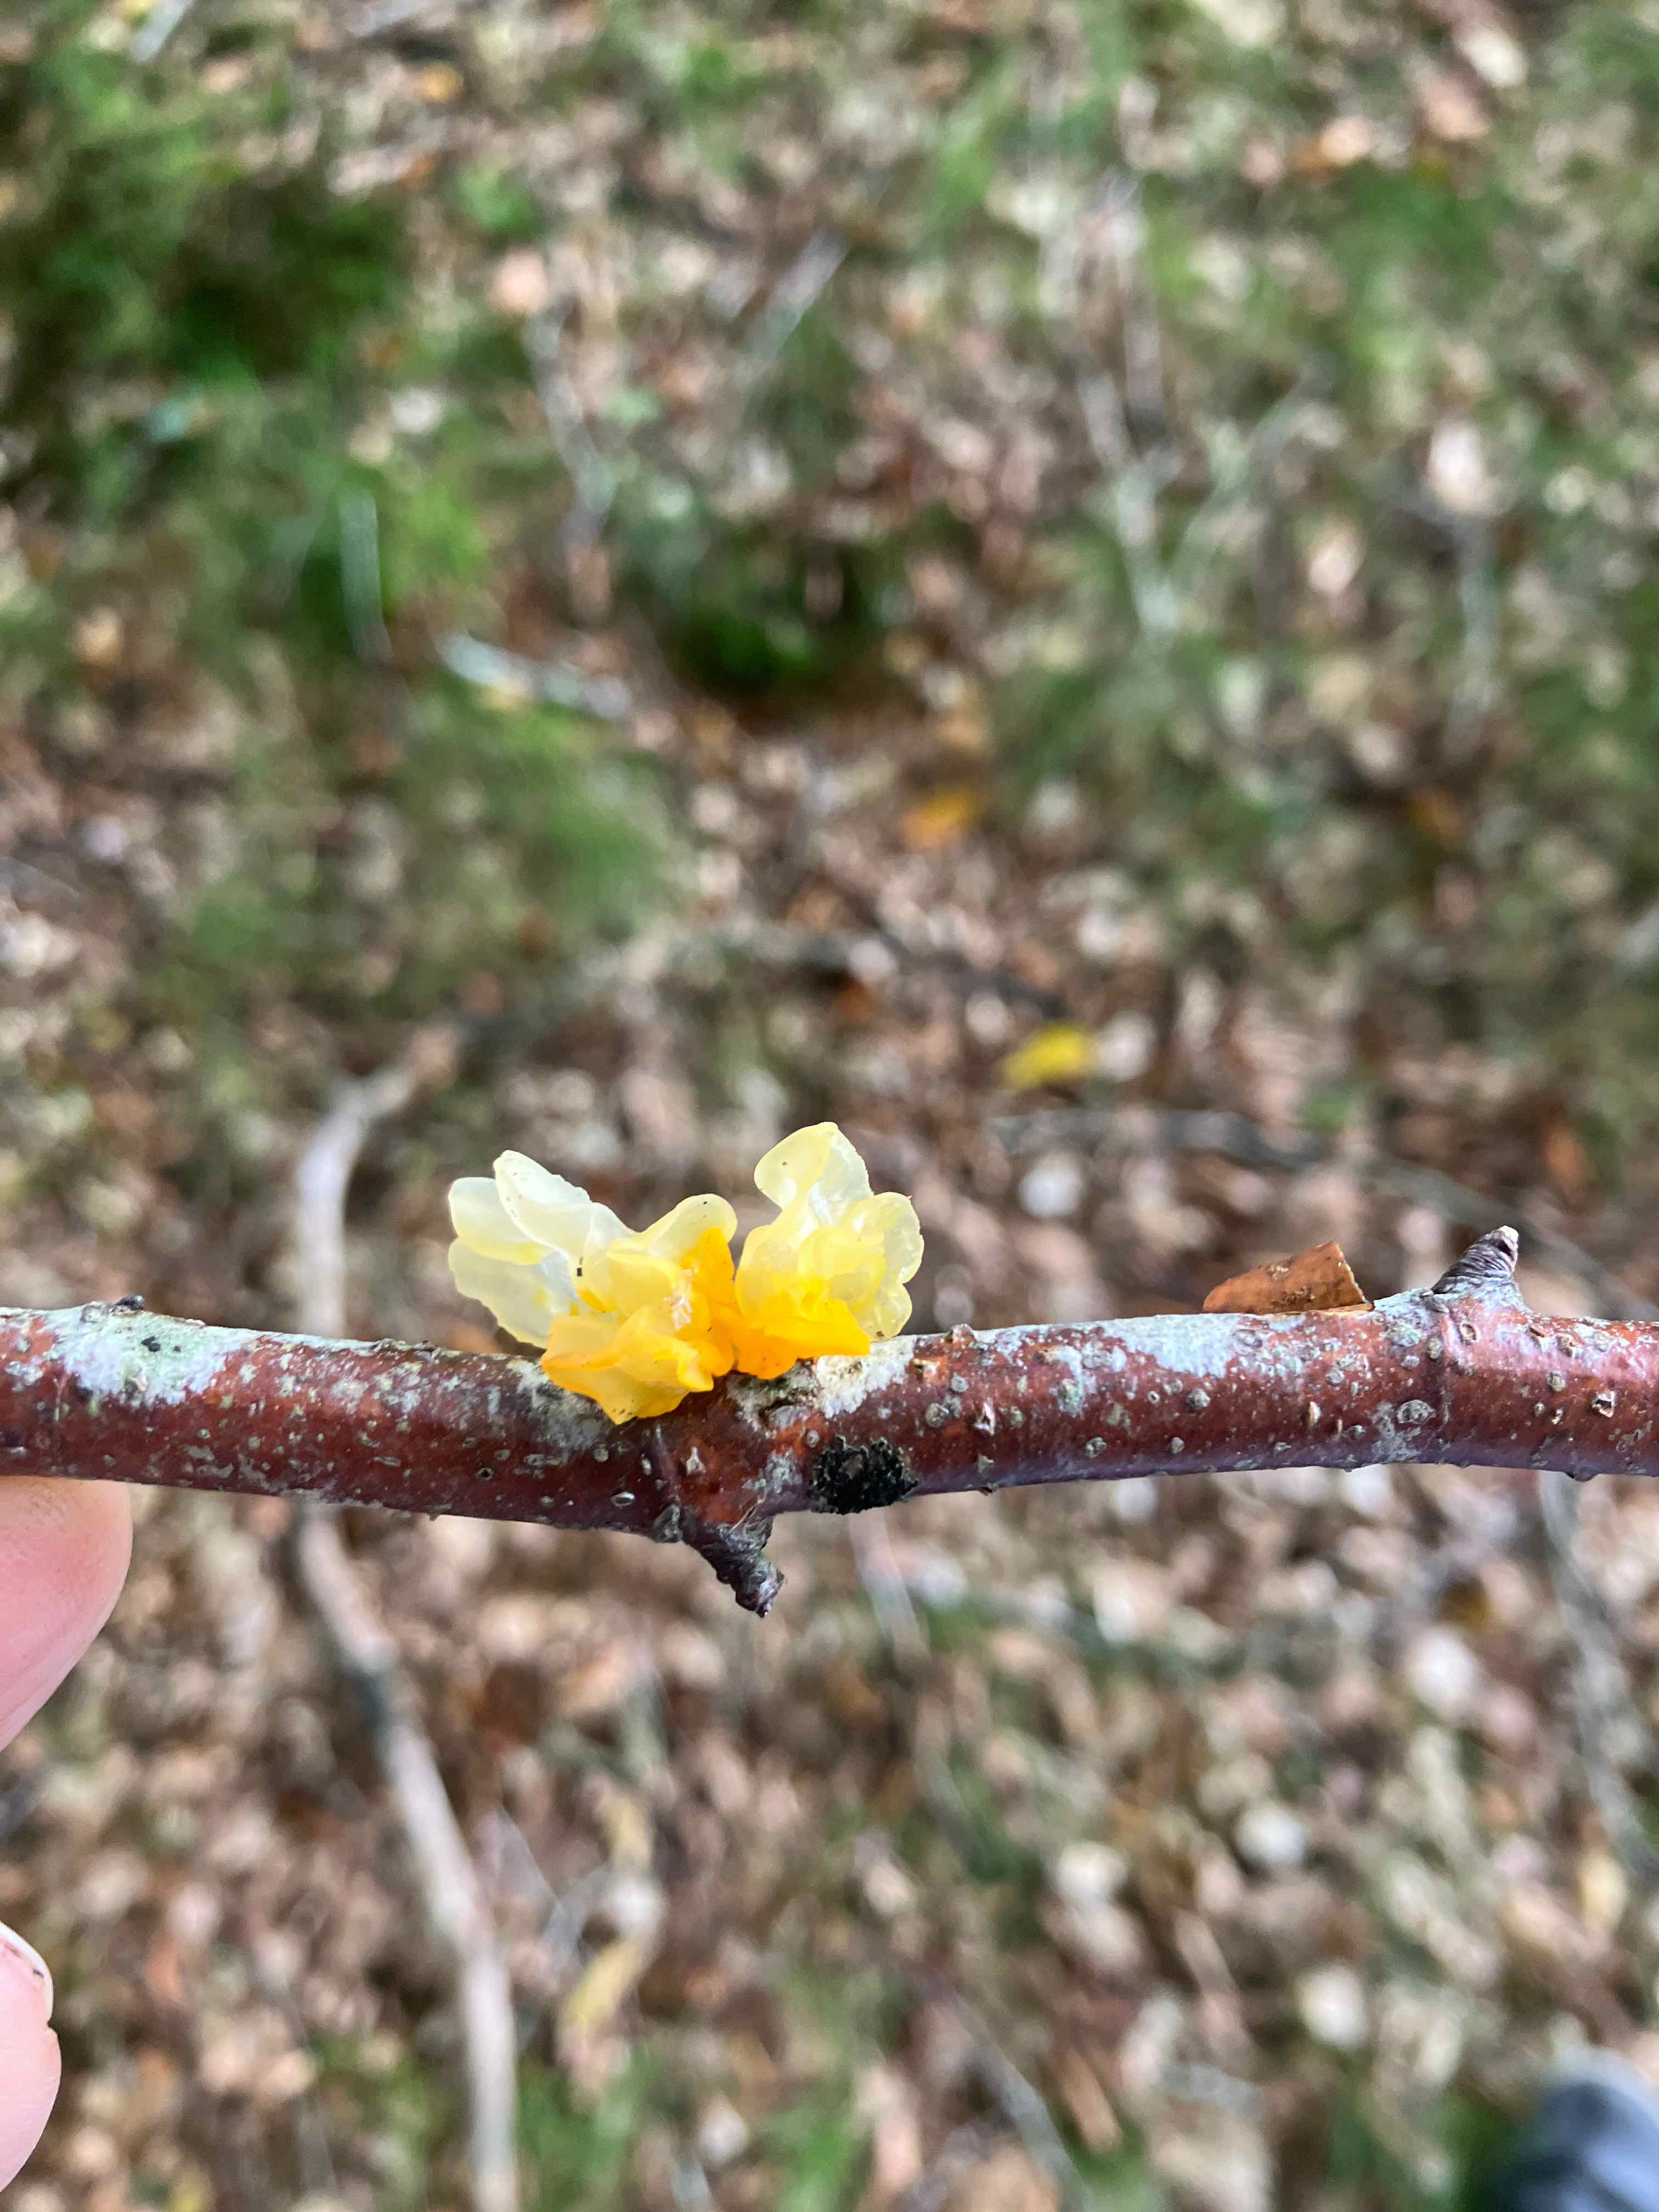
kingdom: Fungi
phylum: Basidiomycota
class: Tremellomycetes
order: Tremellales
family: Tremellaceae
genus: Tremella
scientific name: Tremella mesenterica
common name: gul bævresvamp
